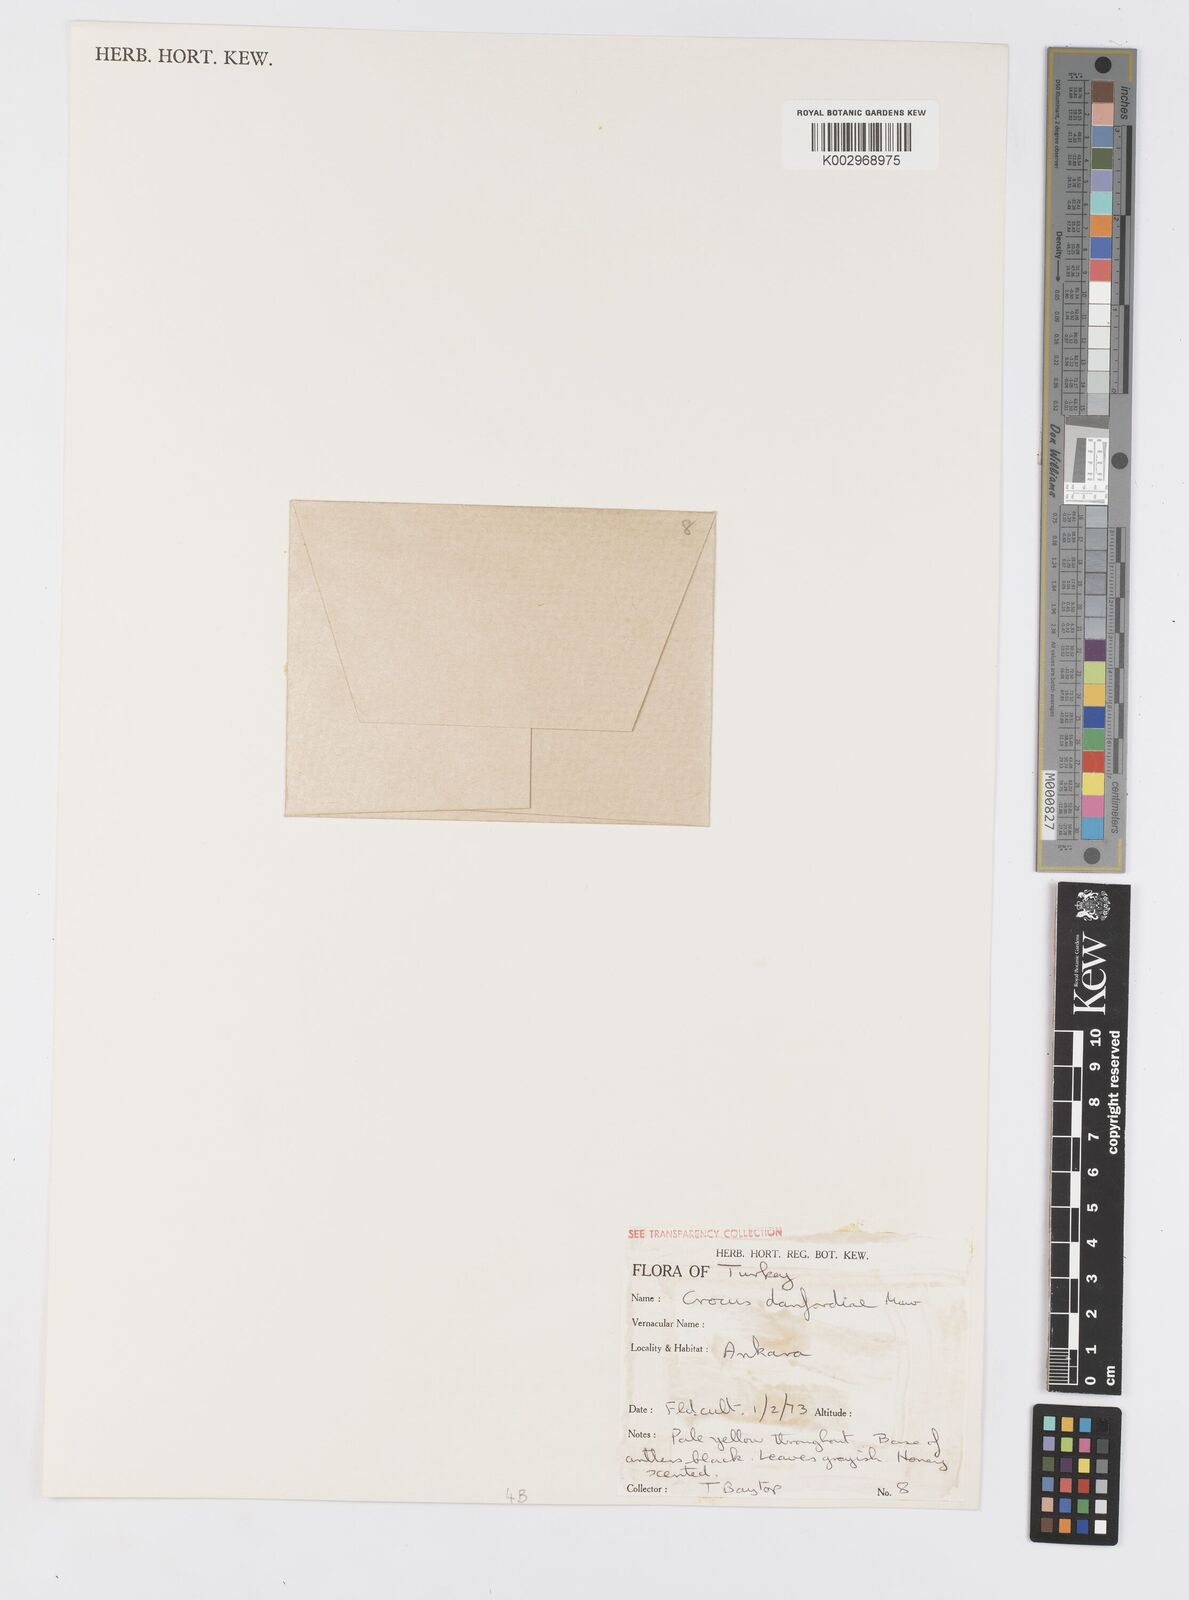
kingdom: Plantae
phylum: Tracheophyta
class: Liliopsida
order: Asparagales
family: Iridaceae
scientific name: Iridaceae
